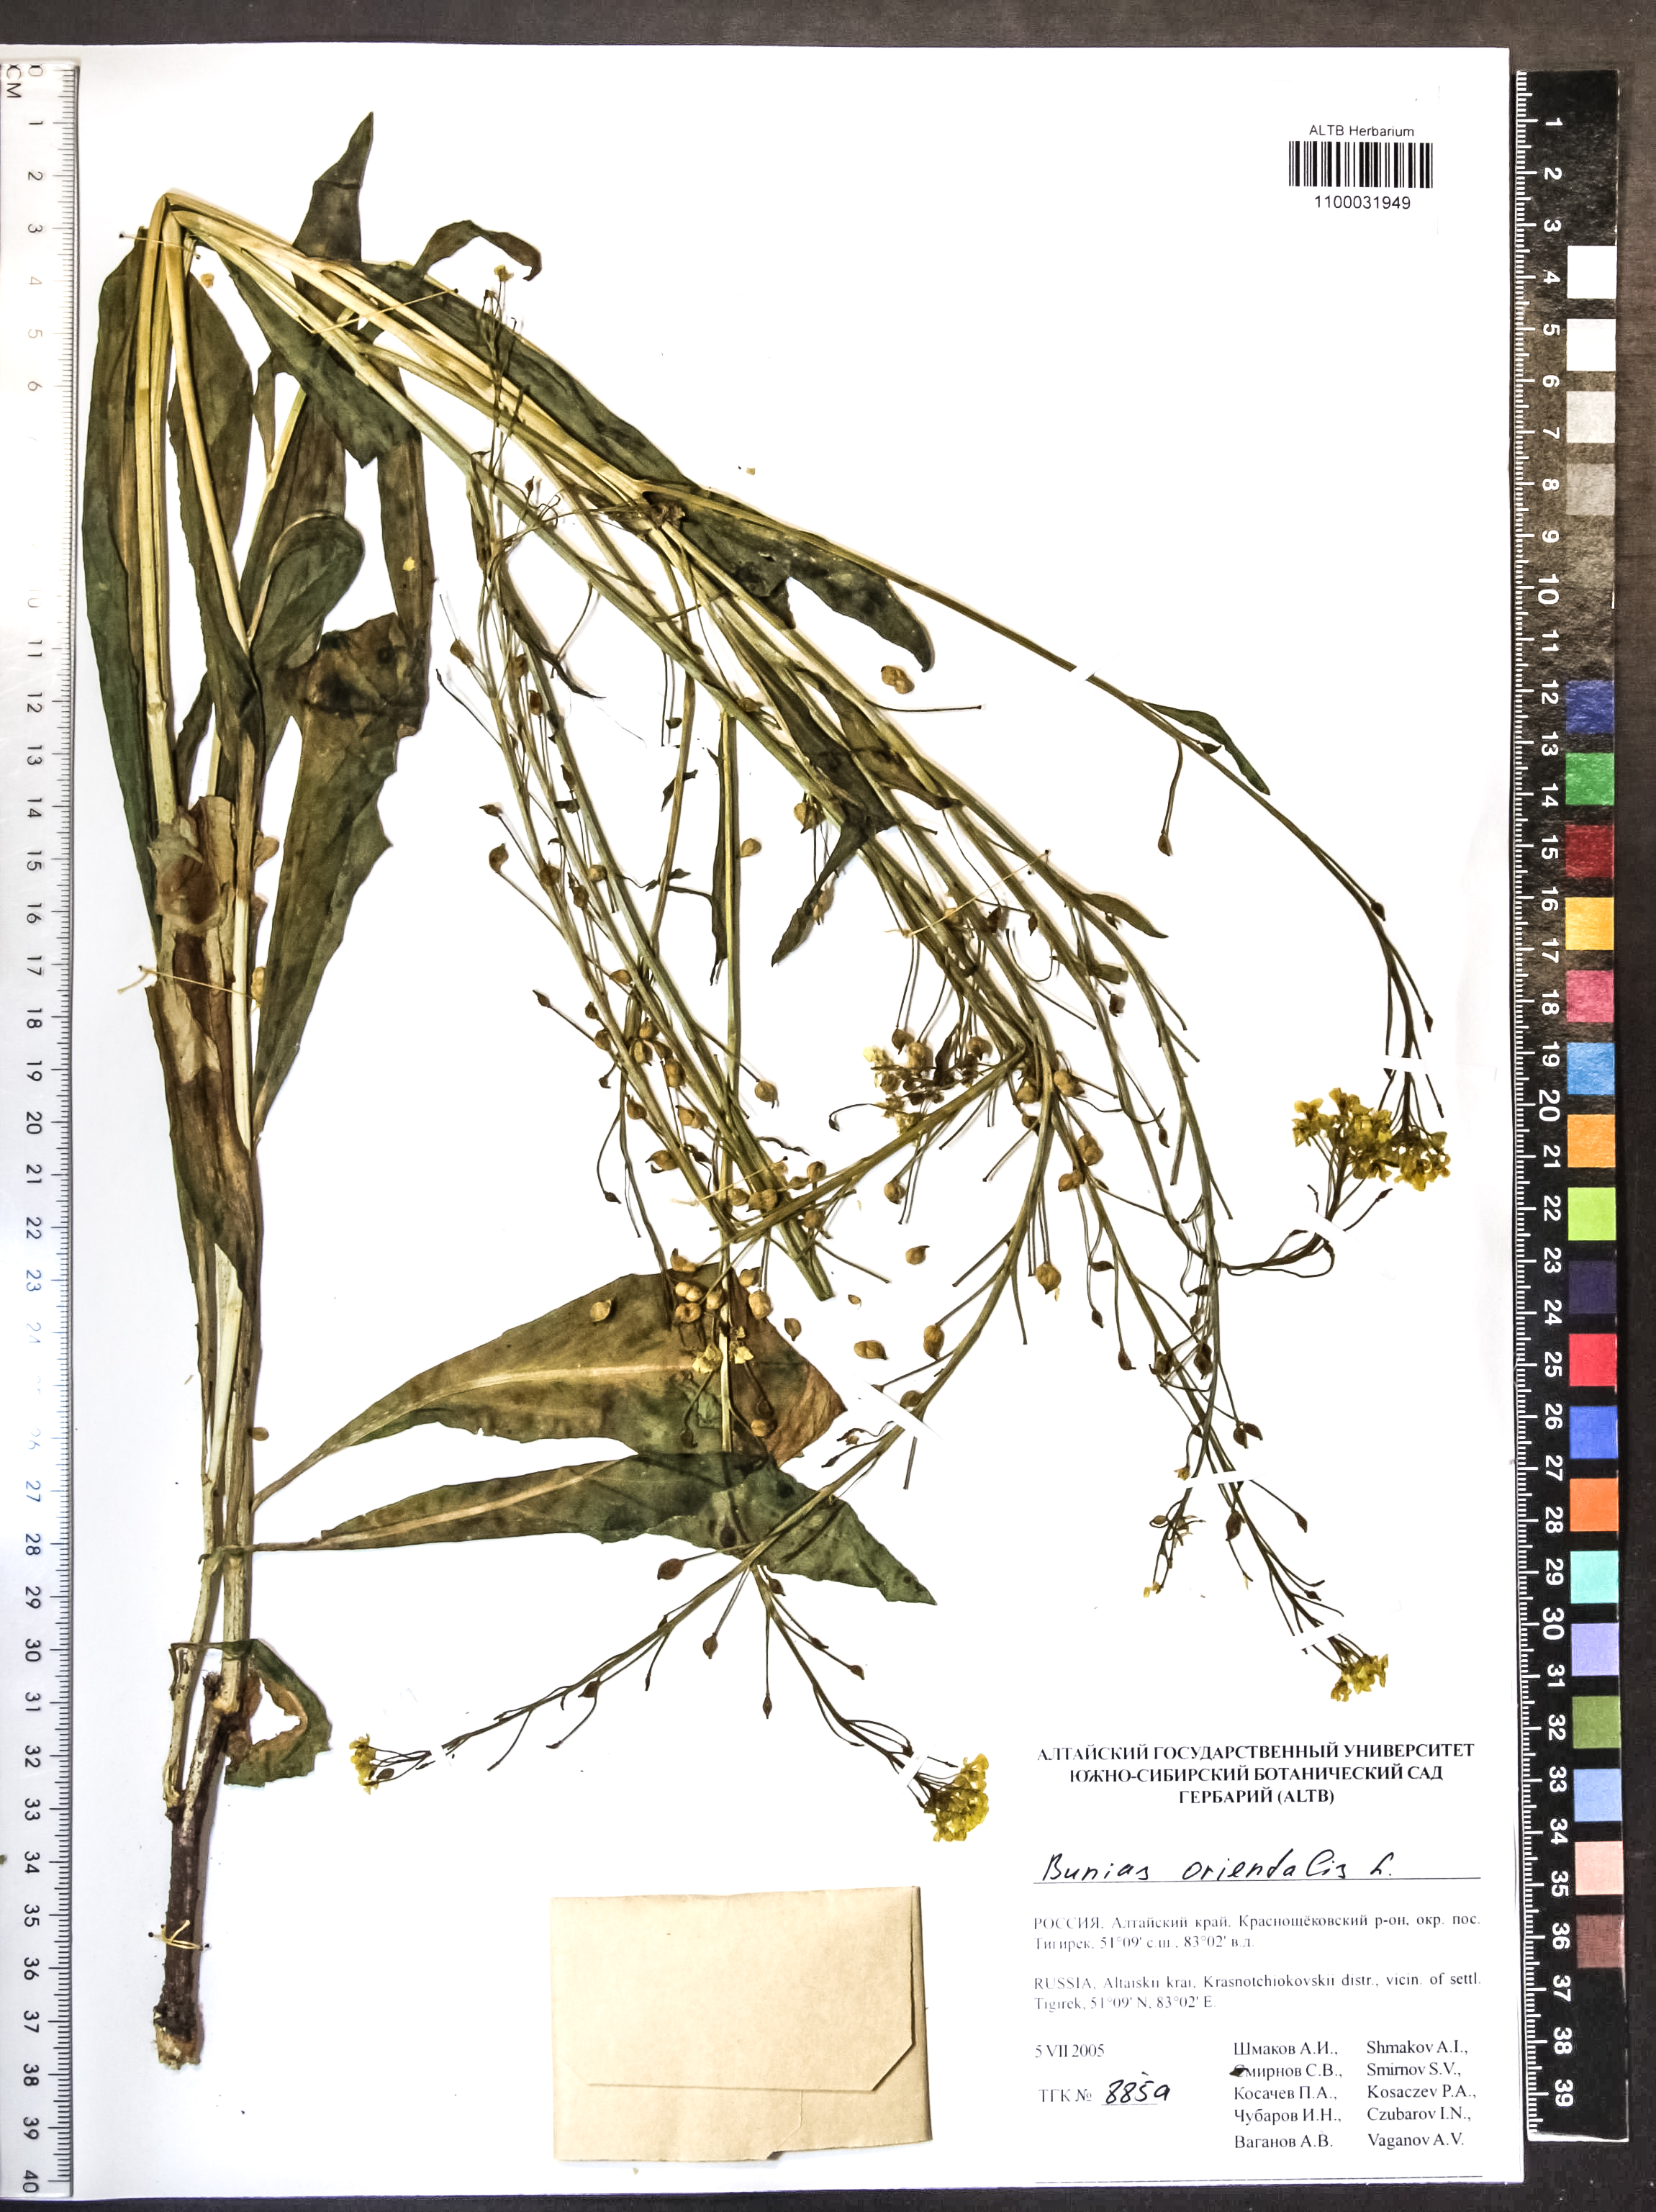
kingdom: Plantae
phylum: Tracheophyta
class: Magnoliopsida
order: Brassicales
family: Brassicaceae
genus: Bunias
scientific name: Bunias orientalis
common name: Warty-cabbage
